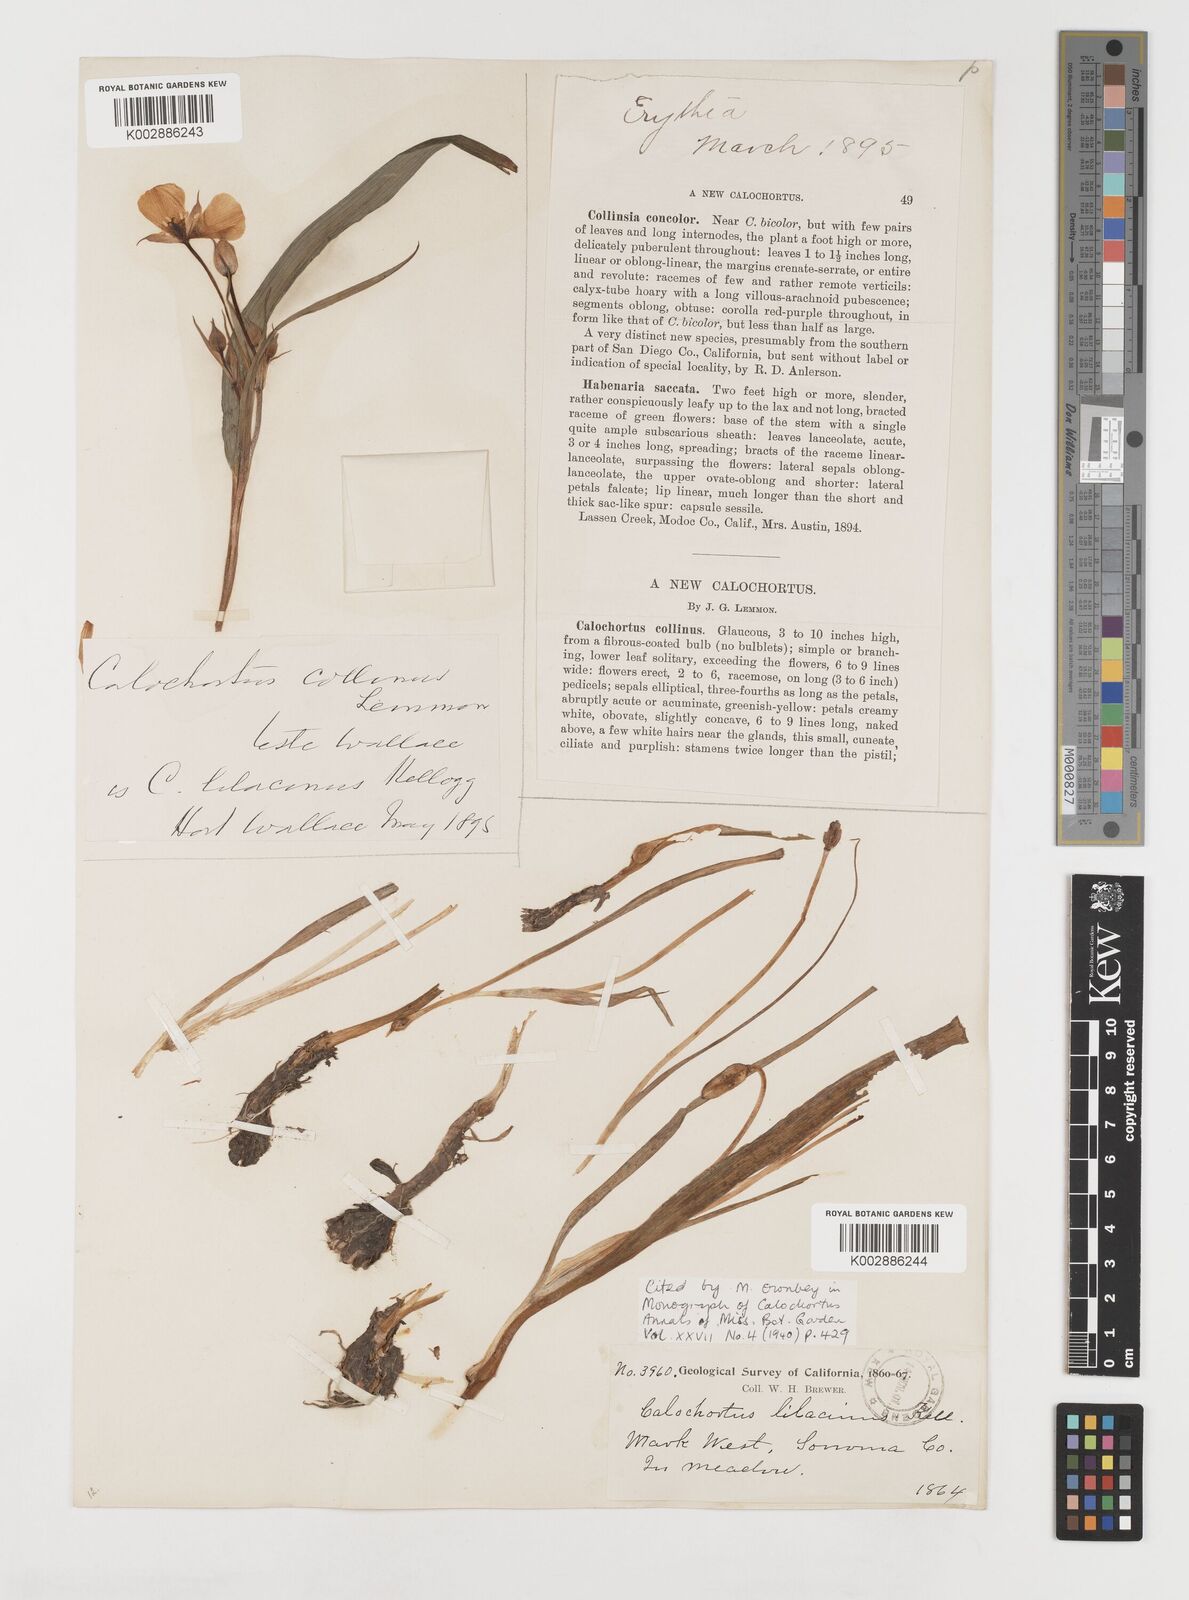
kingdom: Plantae
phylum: Tracheophyta
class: Liliopsida
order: Liliales
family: Liliaceae
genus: Calochortus
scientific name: Calochortus uniflorus
